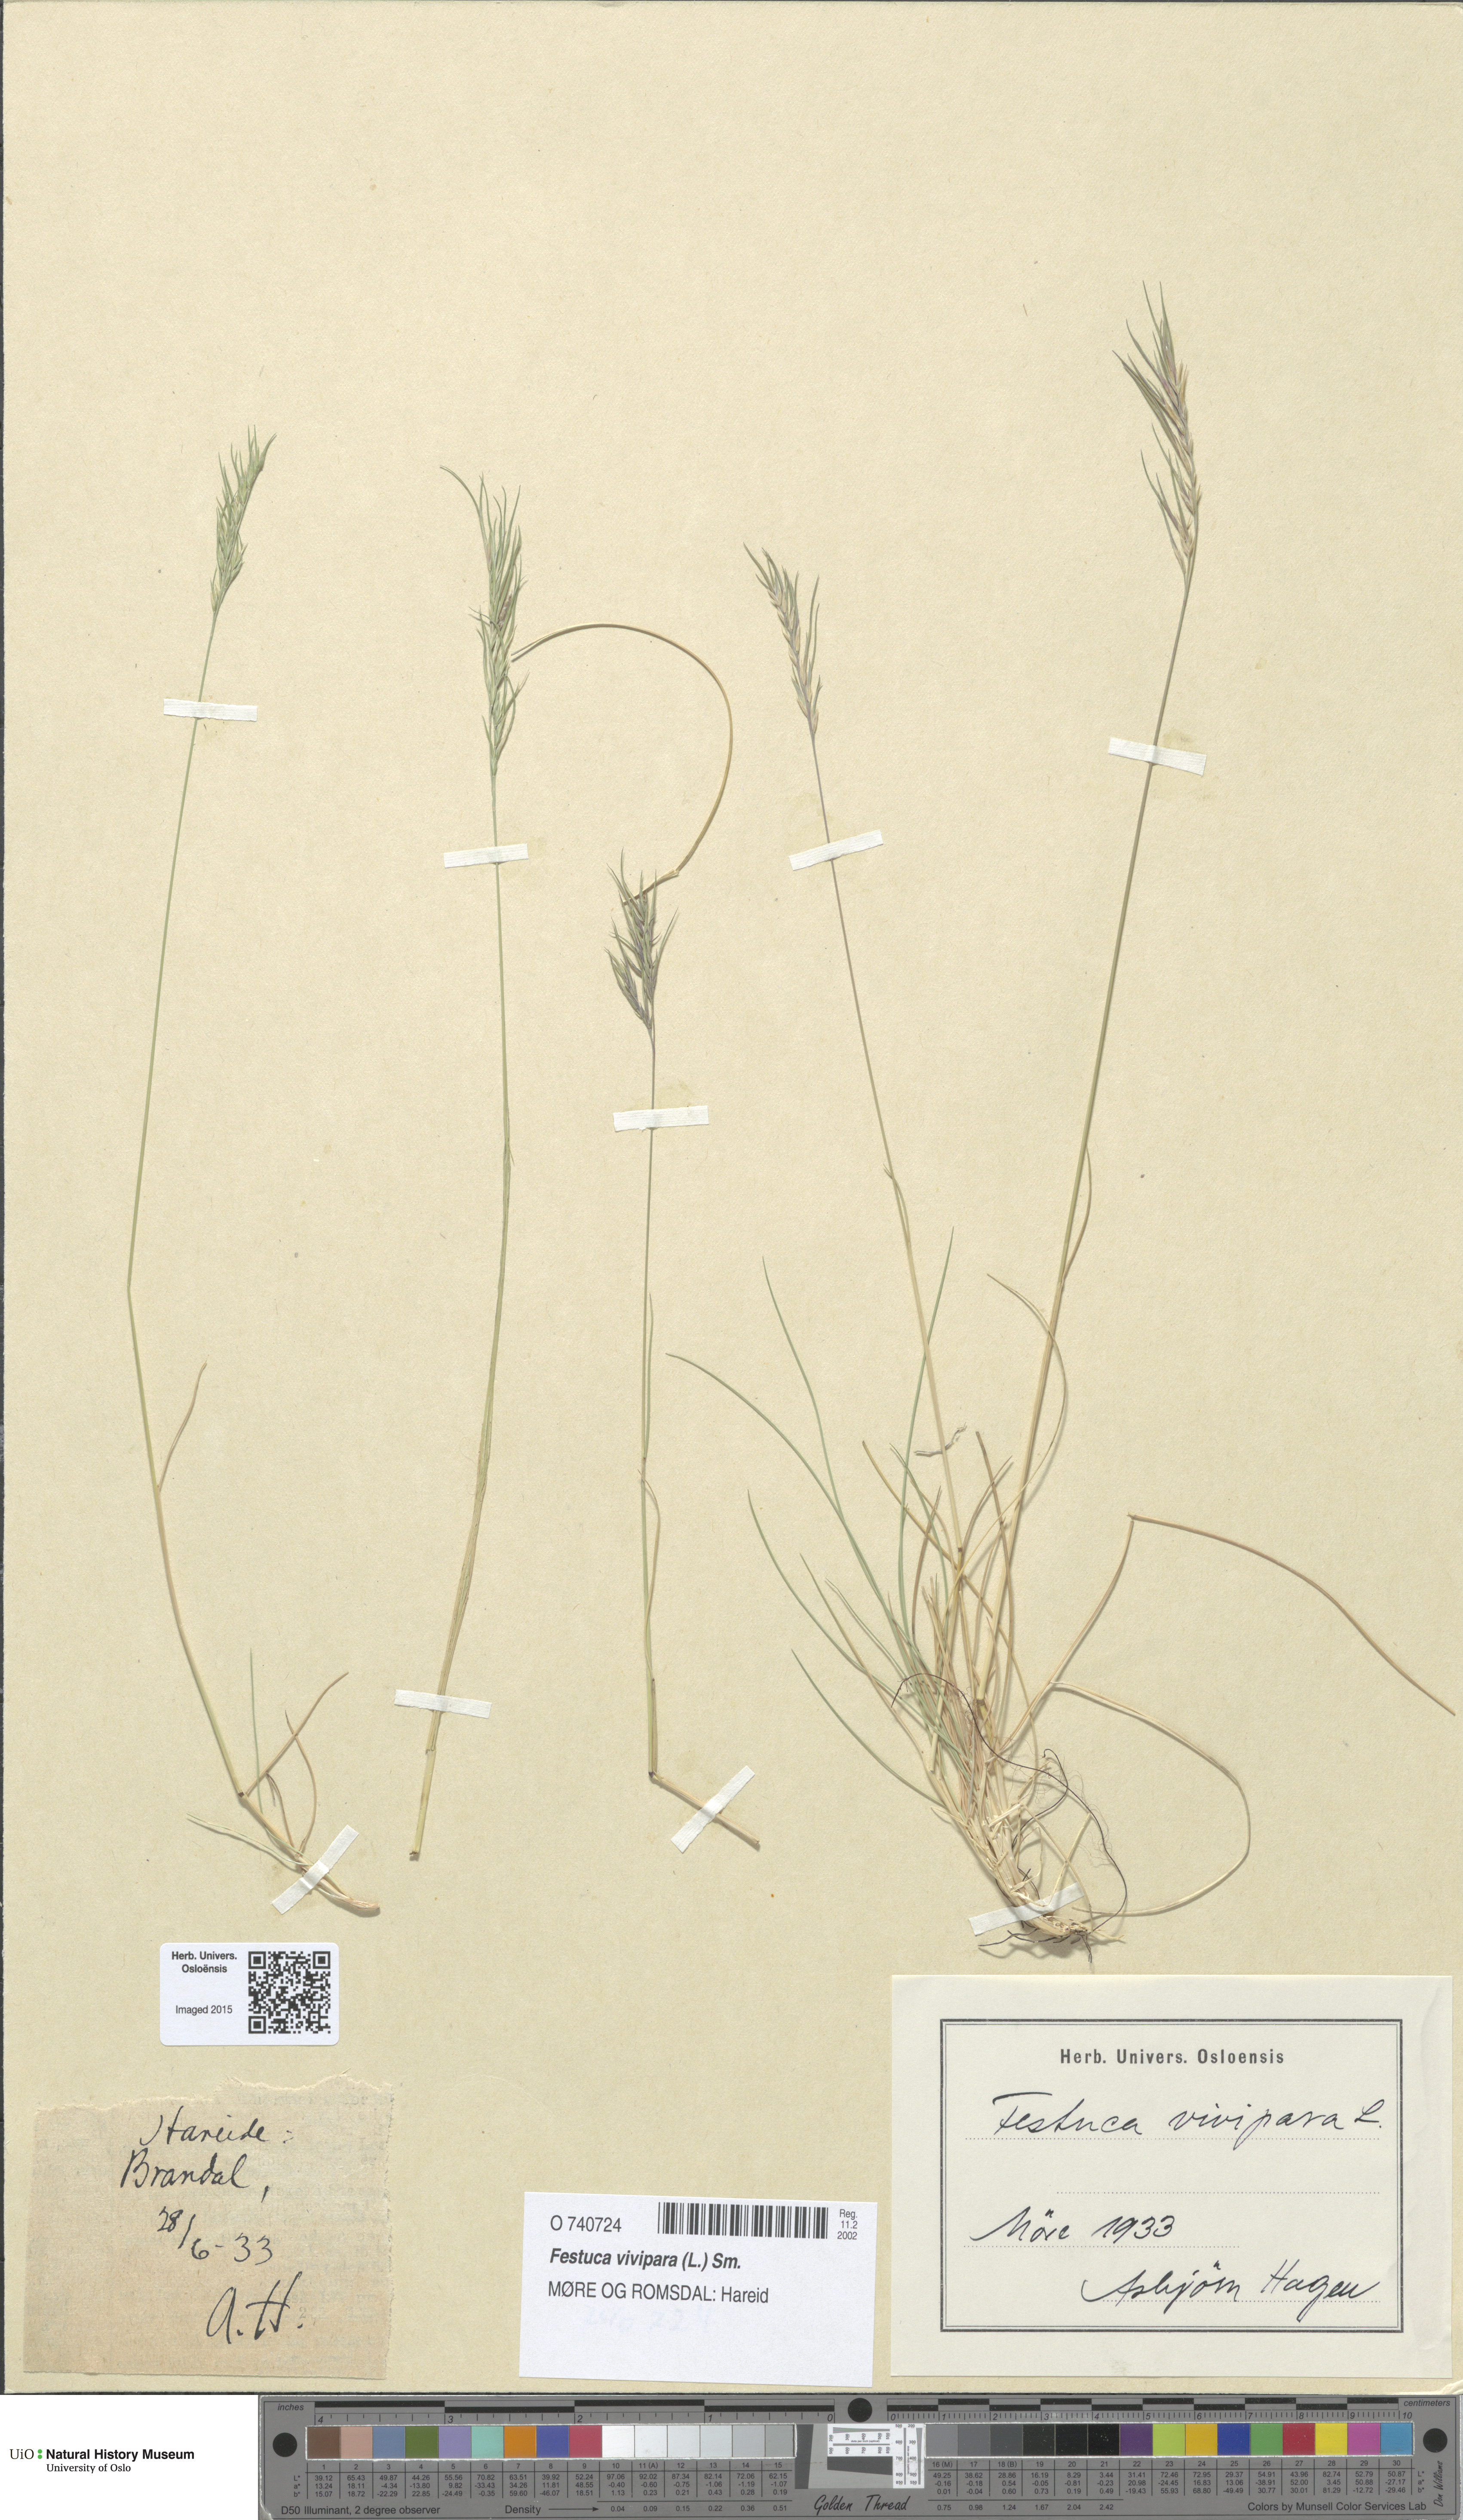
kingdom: Plantae
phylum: Tracheophyta
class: Liliopsida
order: Poales
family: Poaceae
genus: Festuca
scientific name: Festuca vivipara
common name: Viviparous sheep's-fescue
